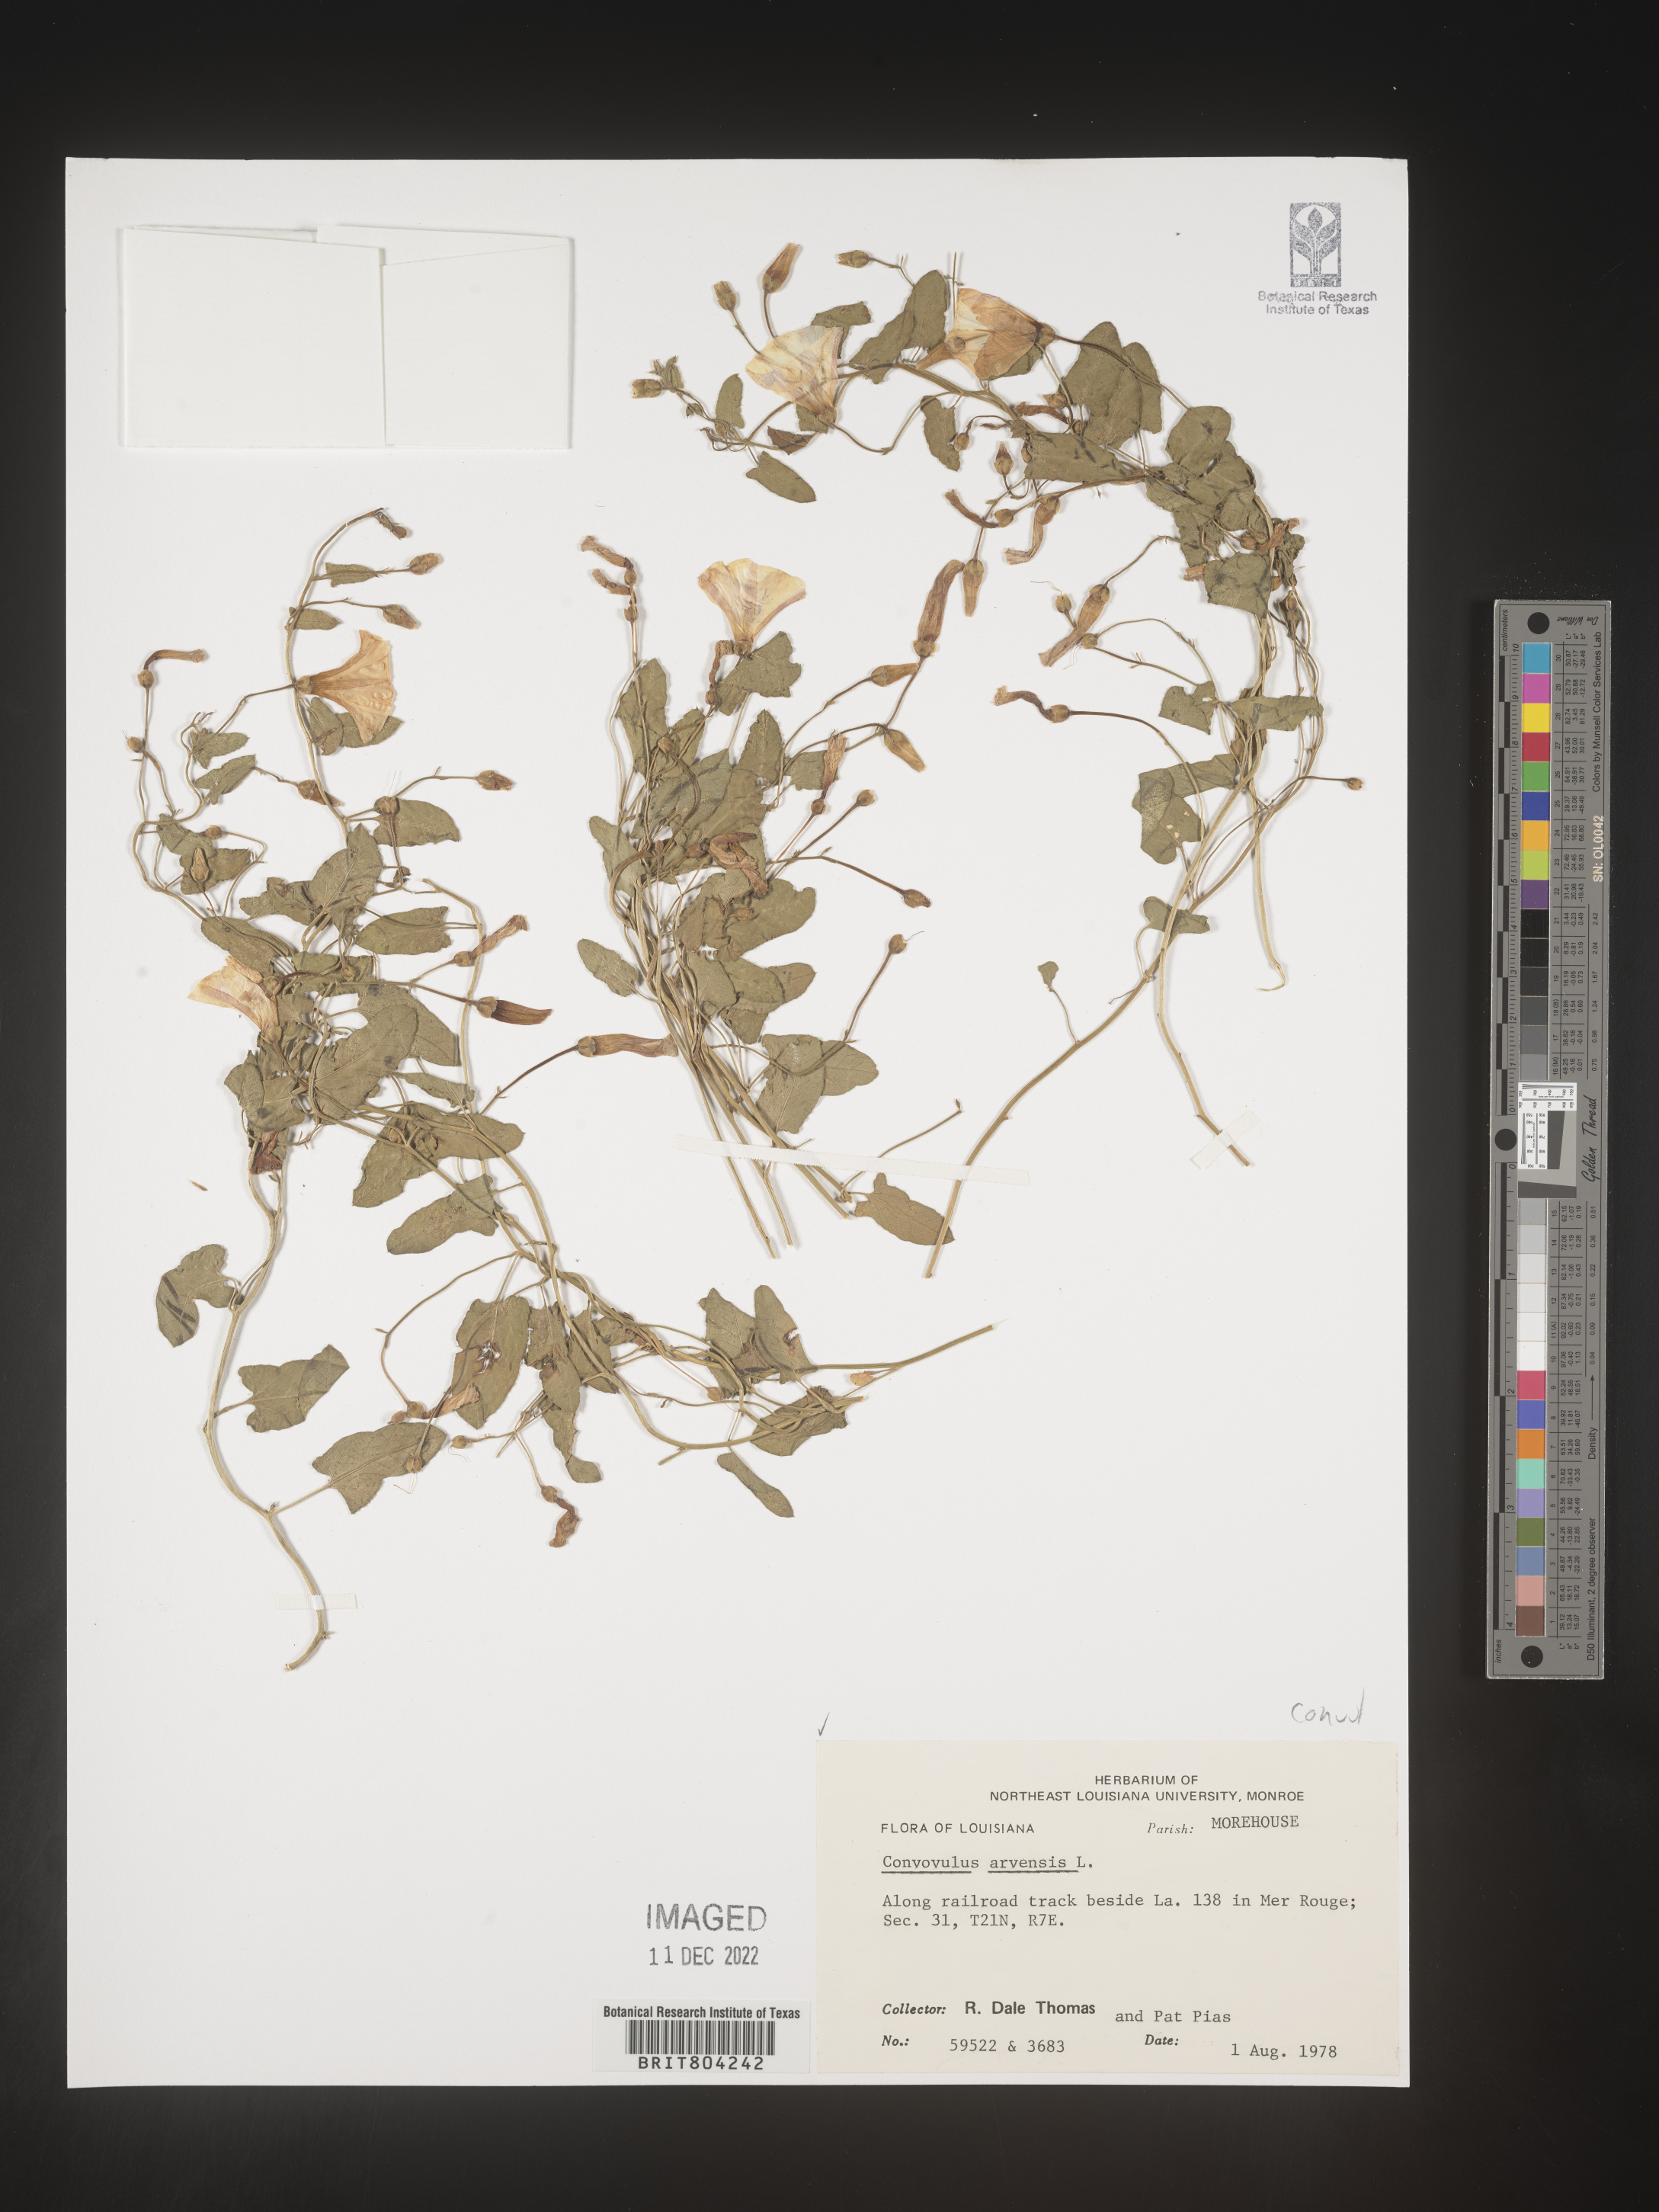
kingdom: Plantae
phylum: Tracheophyta
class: Magnoliopsida
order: Solanales
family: Convolvulaceae
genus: Convolvulus
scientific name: Convolvulus arvensis
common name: Field bindweed
